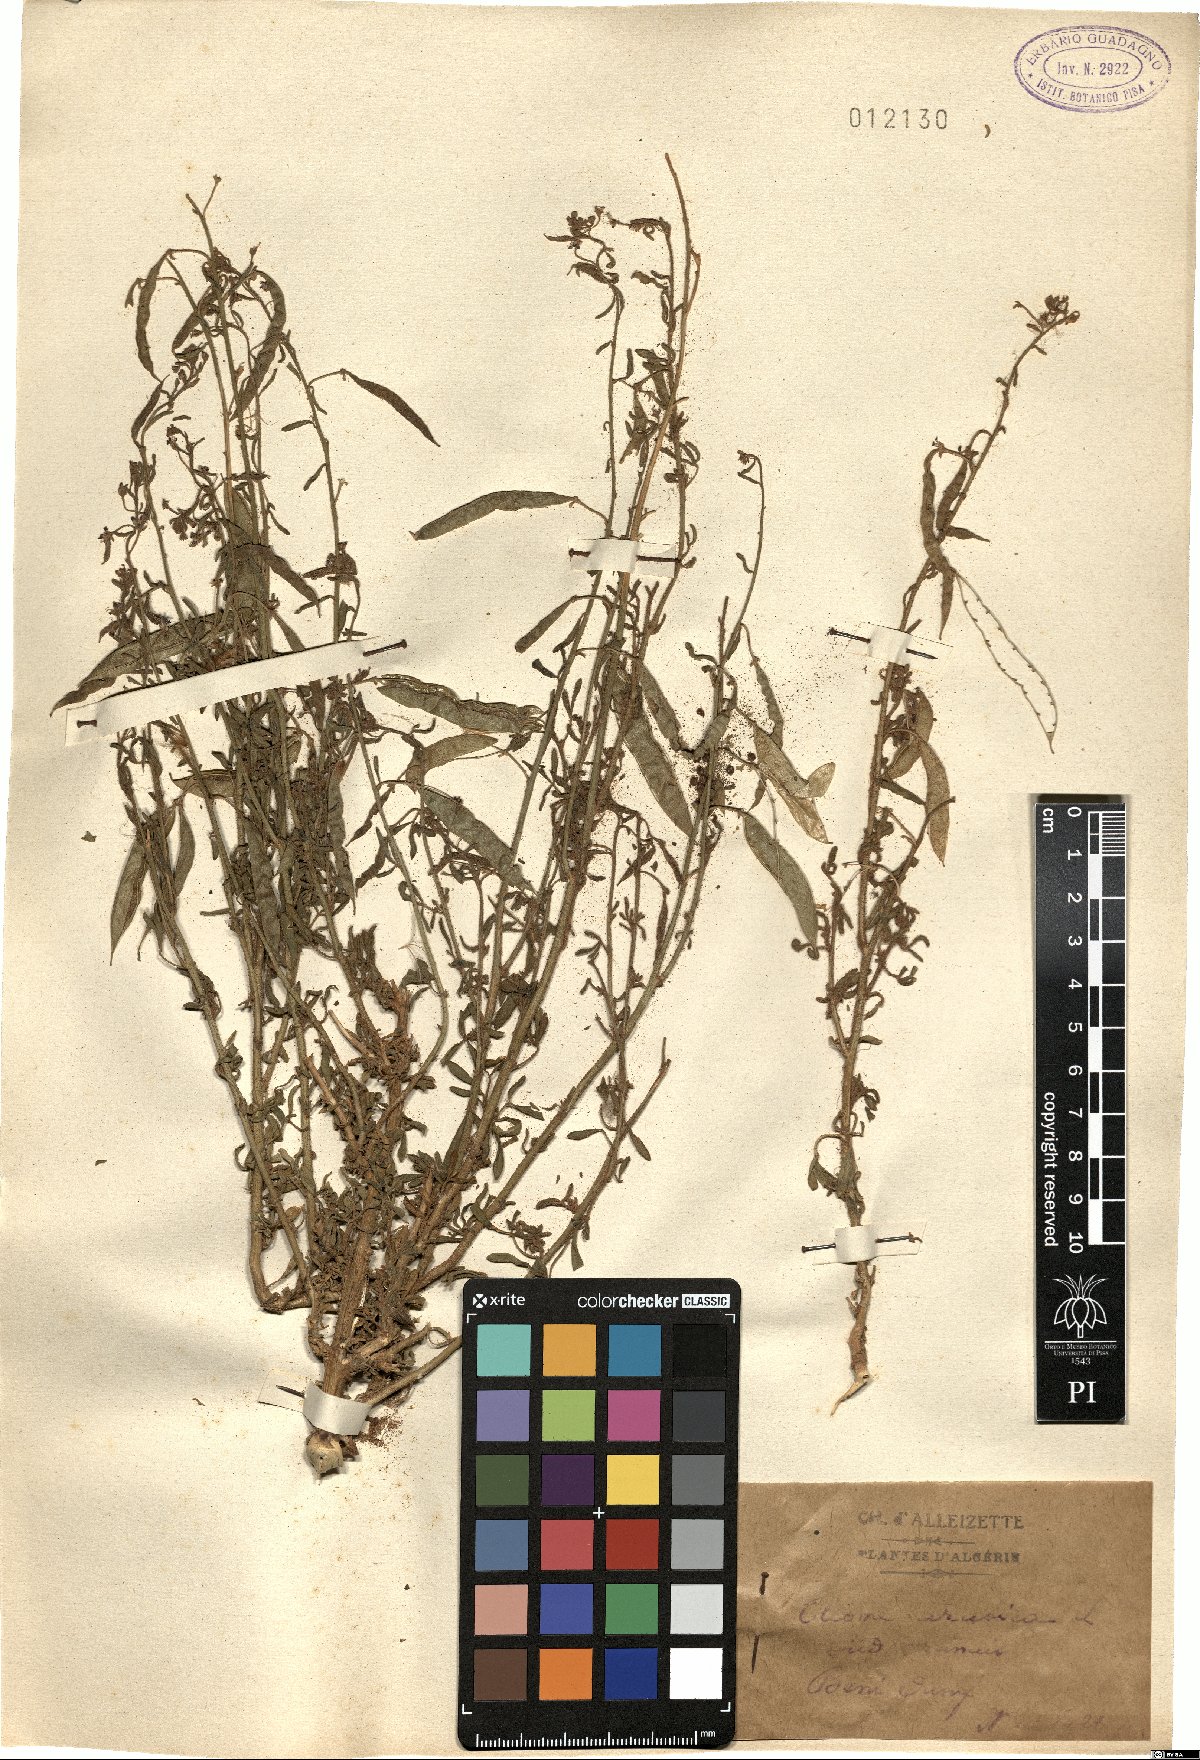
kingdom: Plantae
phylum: Tracheophyta
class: Magnoliopsida
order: Brassicales
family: Cleomaceae
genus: Cleome
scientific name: Cleome arabica
